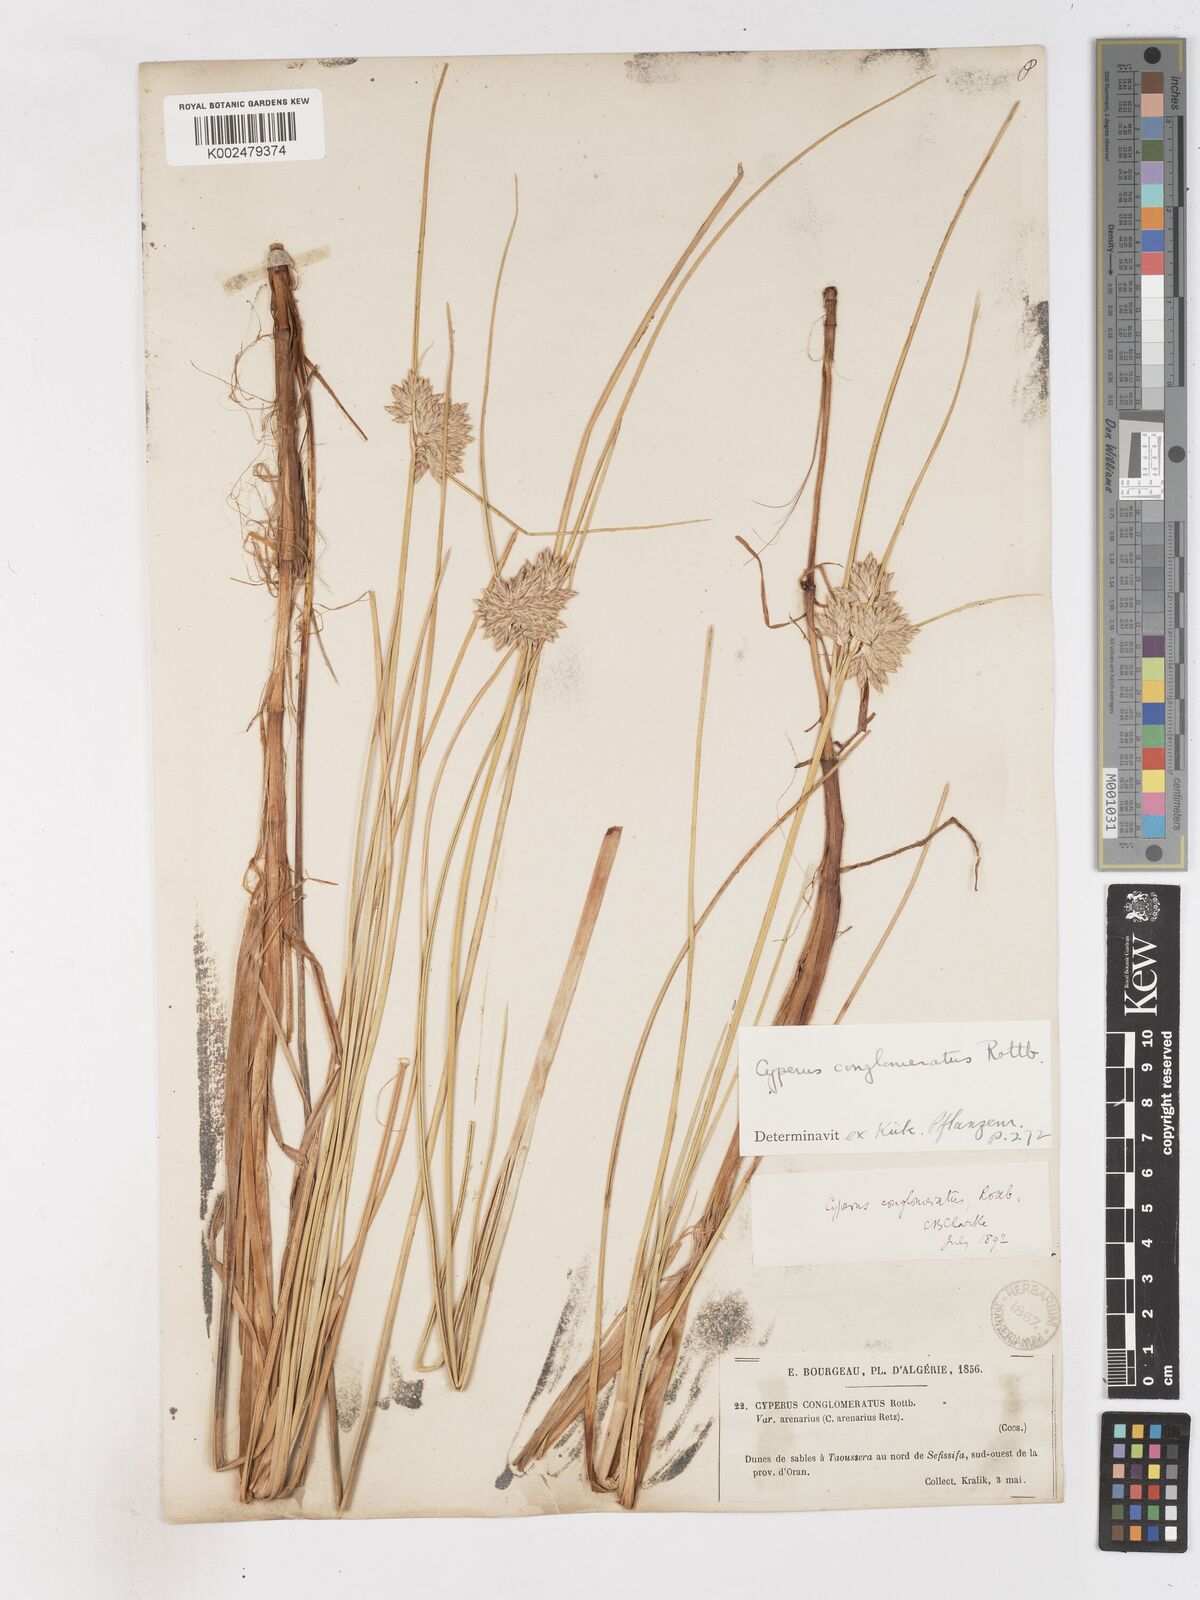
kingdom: Plantae
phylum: Tracheophyta
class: Liliopsida
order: Poales
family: Cyperaceae
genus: Cyperus
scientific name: Cyperus conglomeratus
